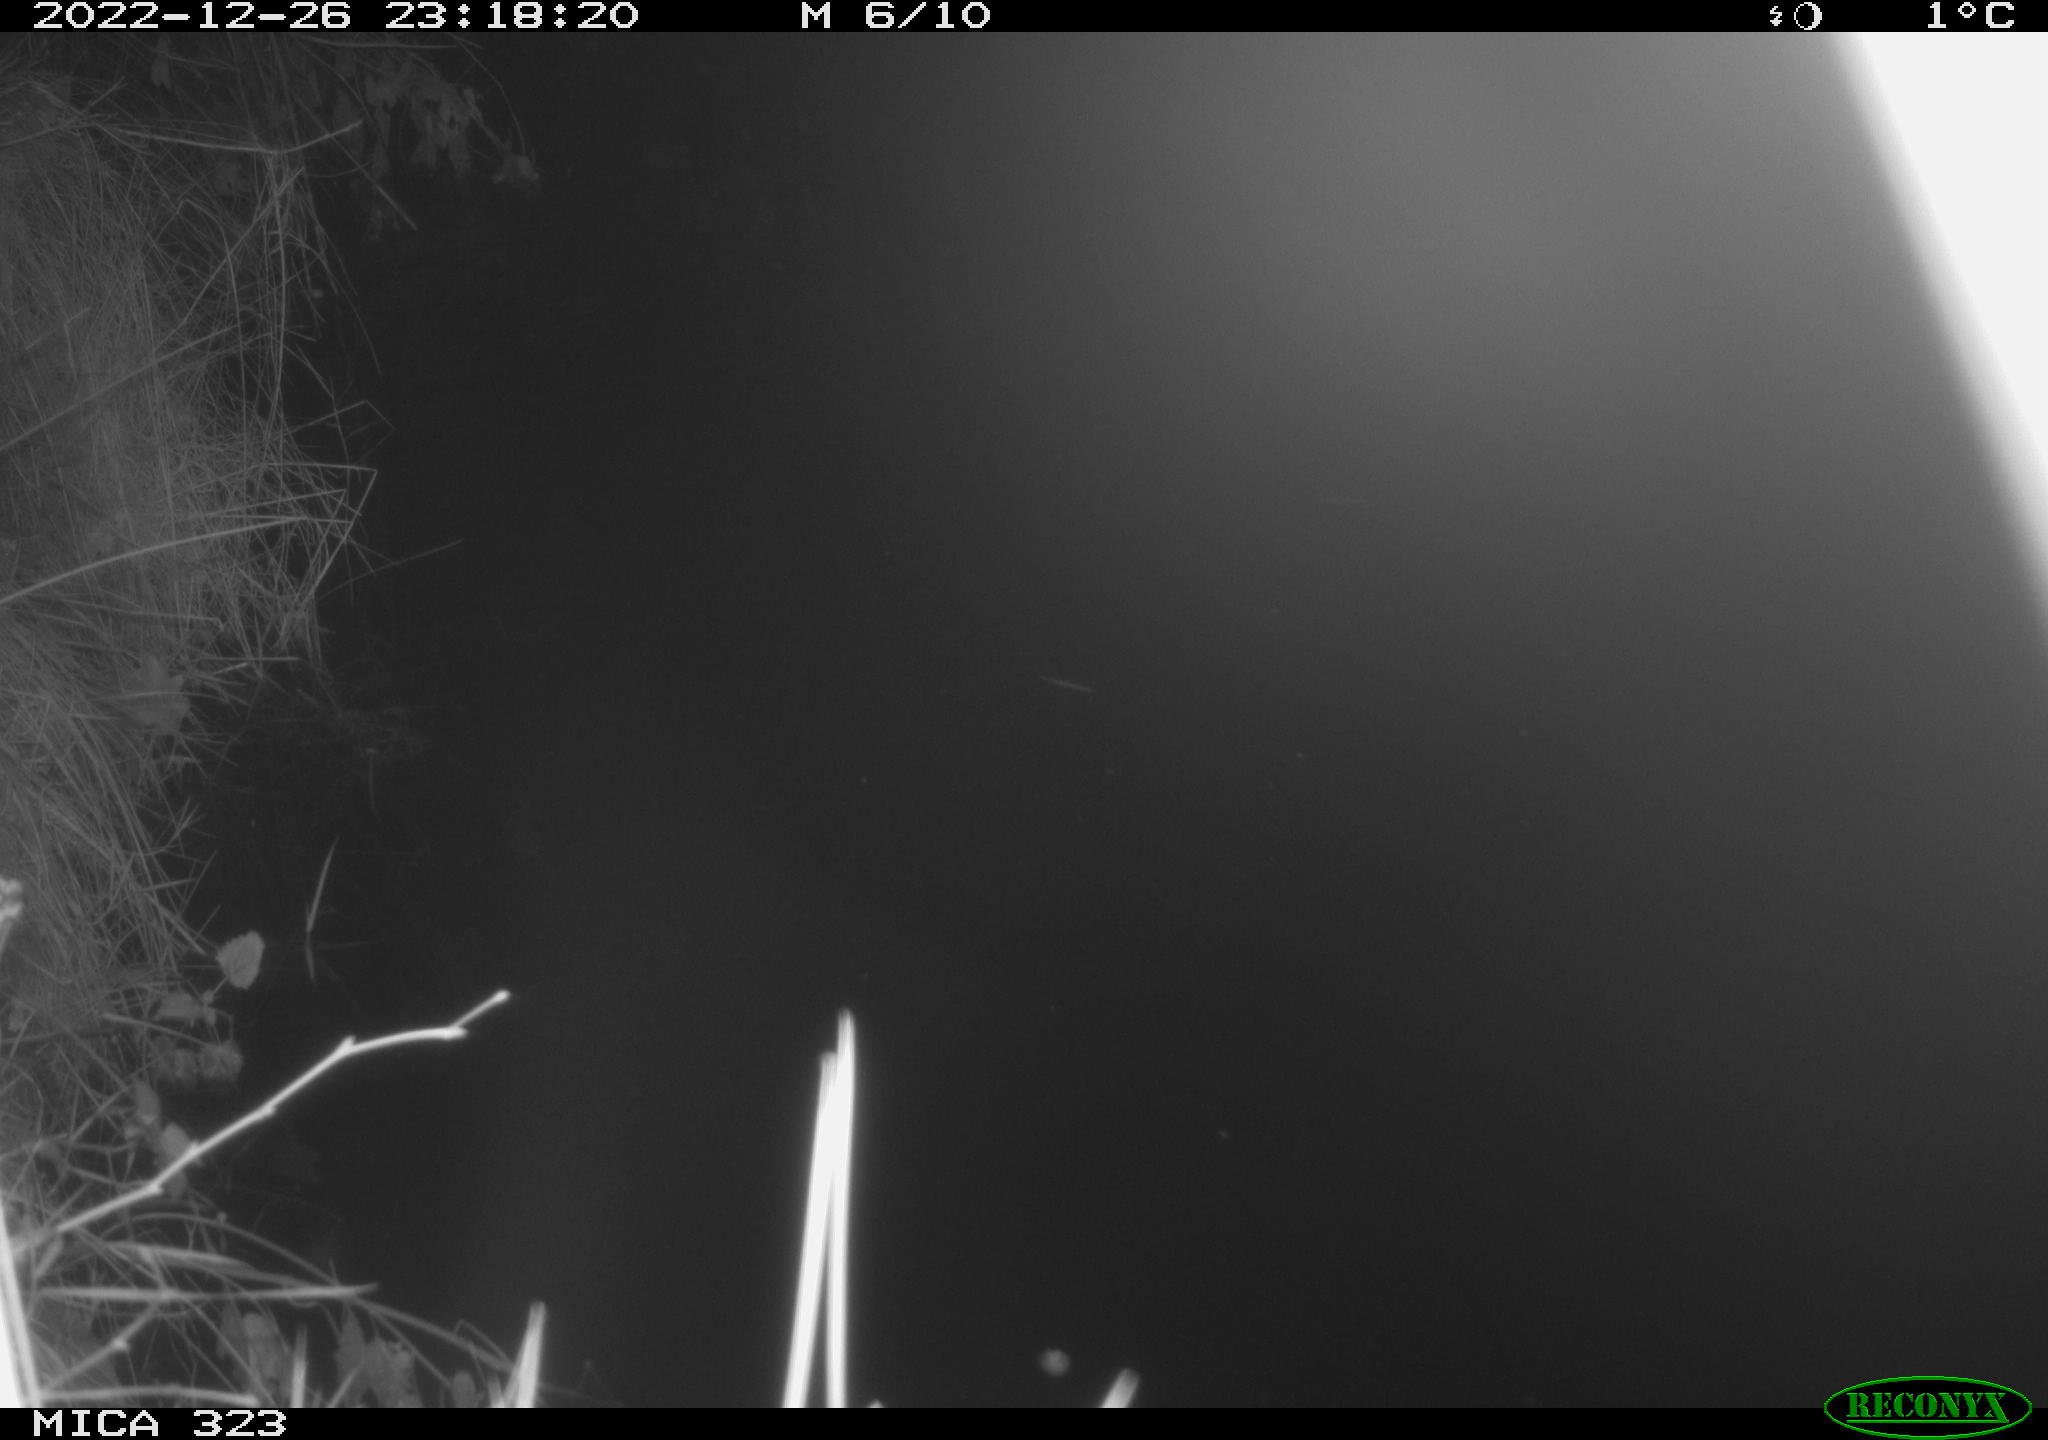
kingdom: Animalia
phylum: Chordata
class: Mammalia
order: Rodentia
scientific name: Rodentia
